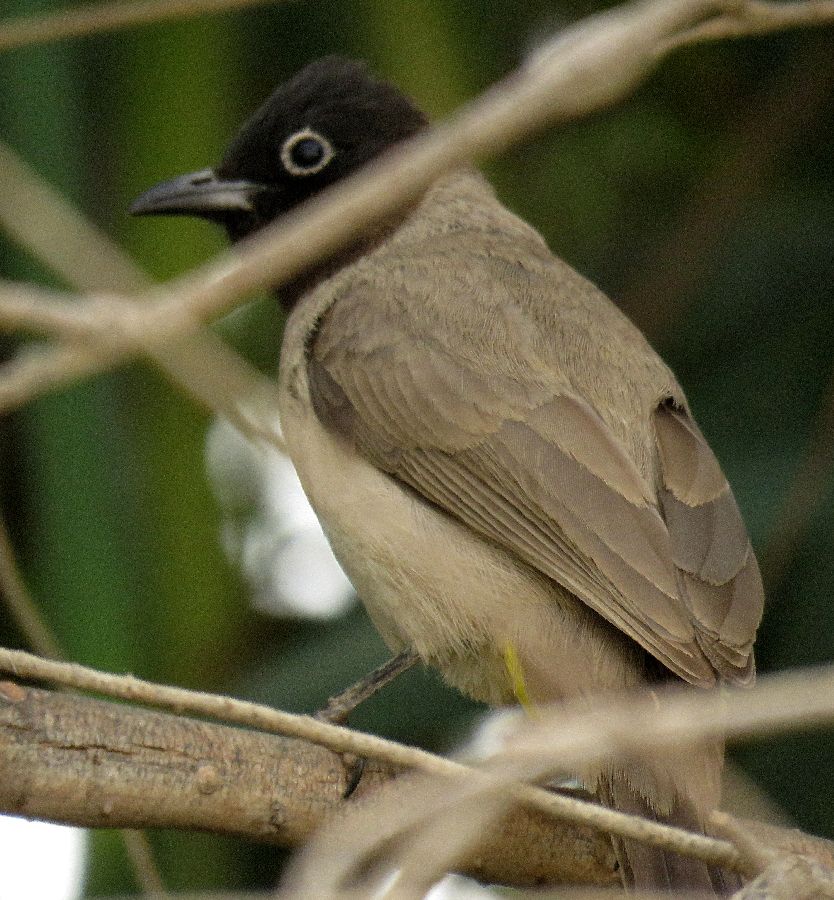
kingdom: Animalia
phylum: Chordata
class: Aves
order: Passeriformes
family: Pycnonotidae
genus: Pycnonotus
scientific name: Pycnonotus xanthopygos
